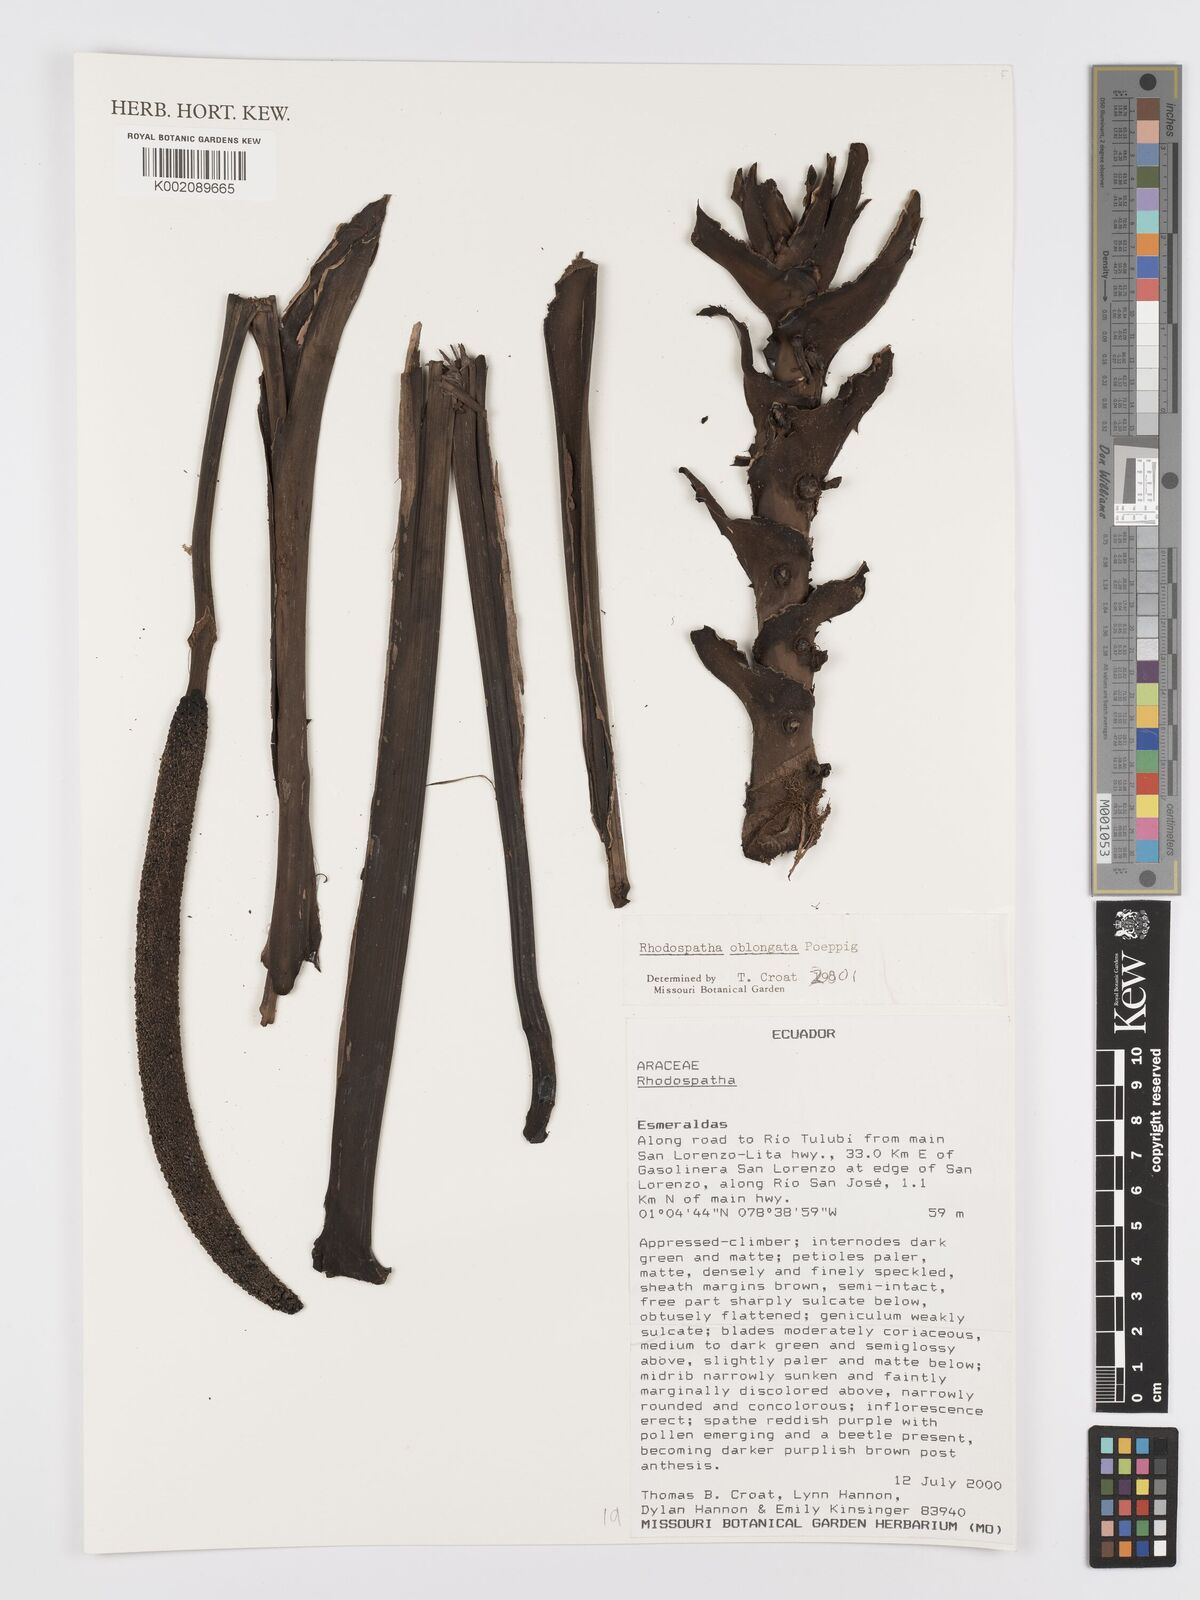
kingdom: Plantae
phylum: Tracheophyta
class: Liliopsida
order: Alismatales
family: Araceae
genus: Rhodospatha
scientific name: Rhodospatha oblongata
